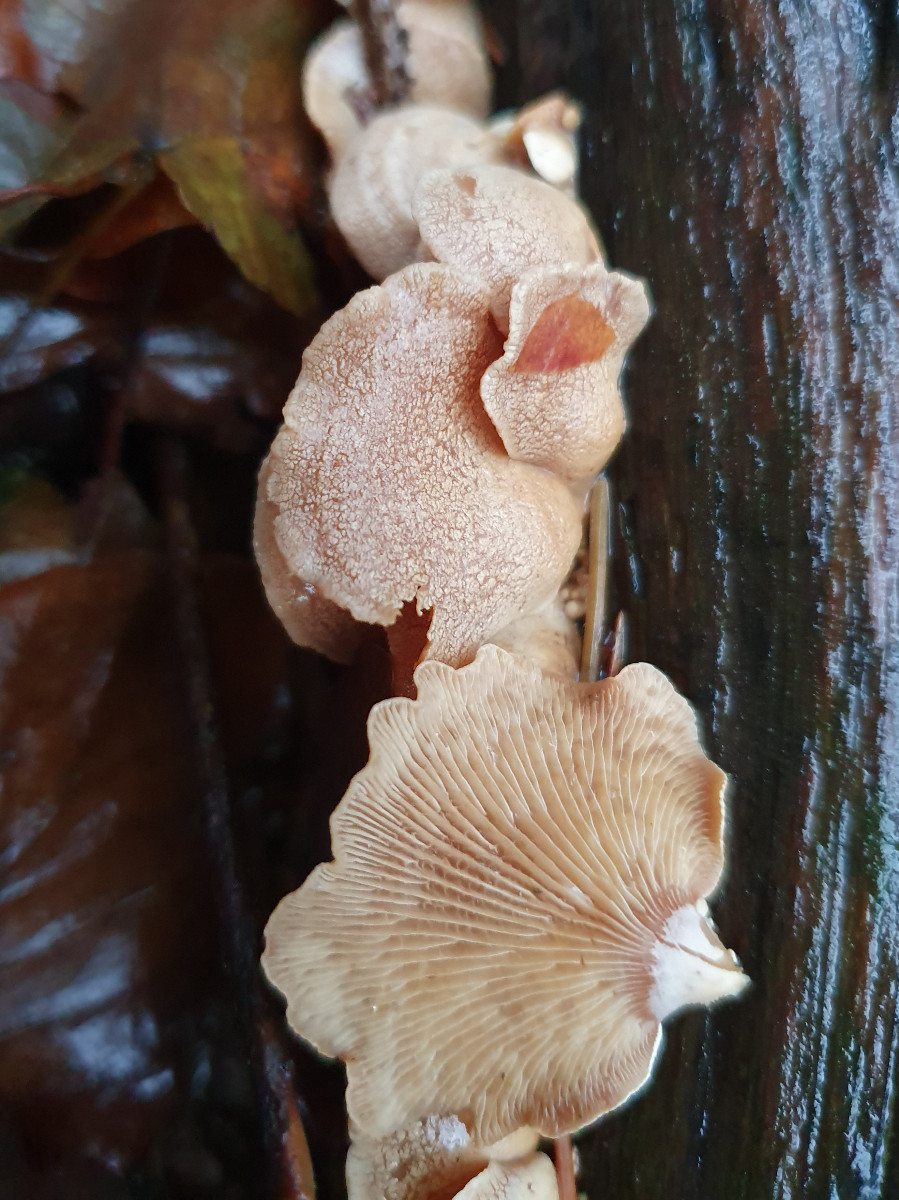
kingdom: Fungi
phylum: Basidiomycota
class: Agaricomycetes
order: Agaricales
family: Mycenaceae
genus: Panellus
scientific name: Panellus stipticus
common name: kliddet epaulethat
